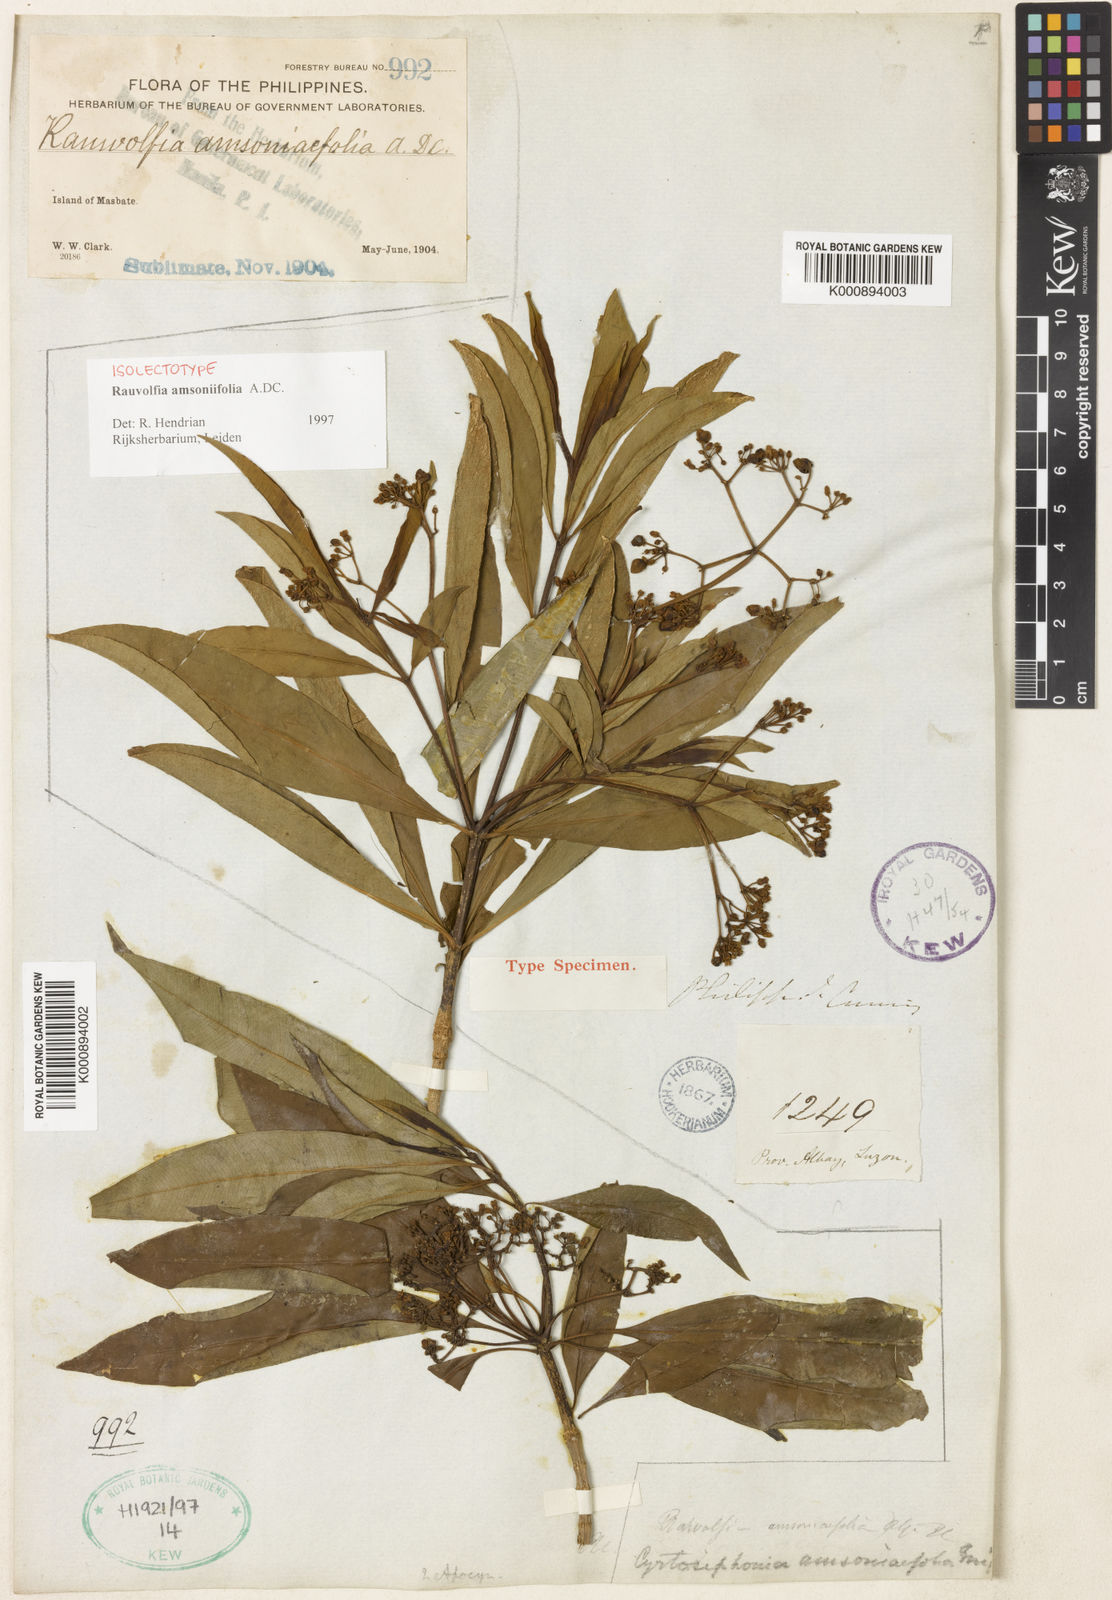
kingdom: Plantae
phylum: Tracheophyta
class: Magnoliopsida
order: Gentianales
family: Apocynaceae
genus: Rauvolfia
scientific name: Rauvolfia amsoniifolia
